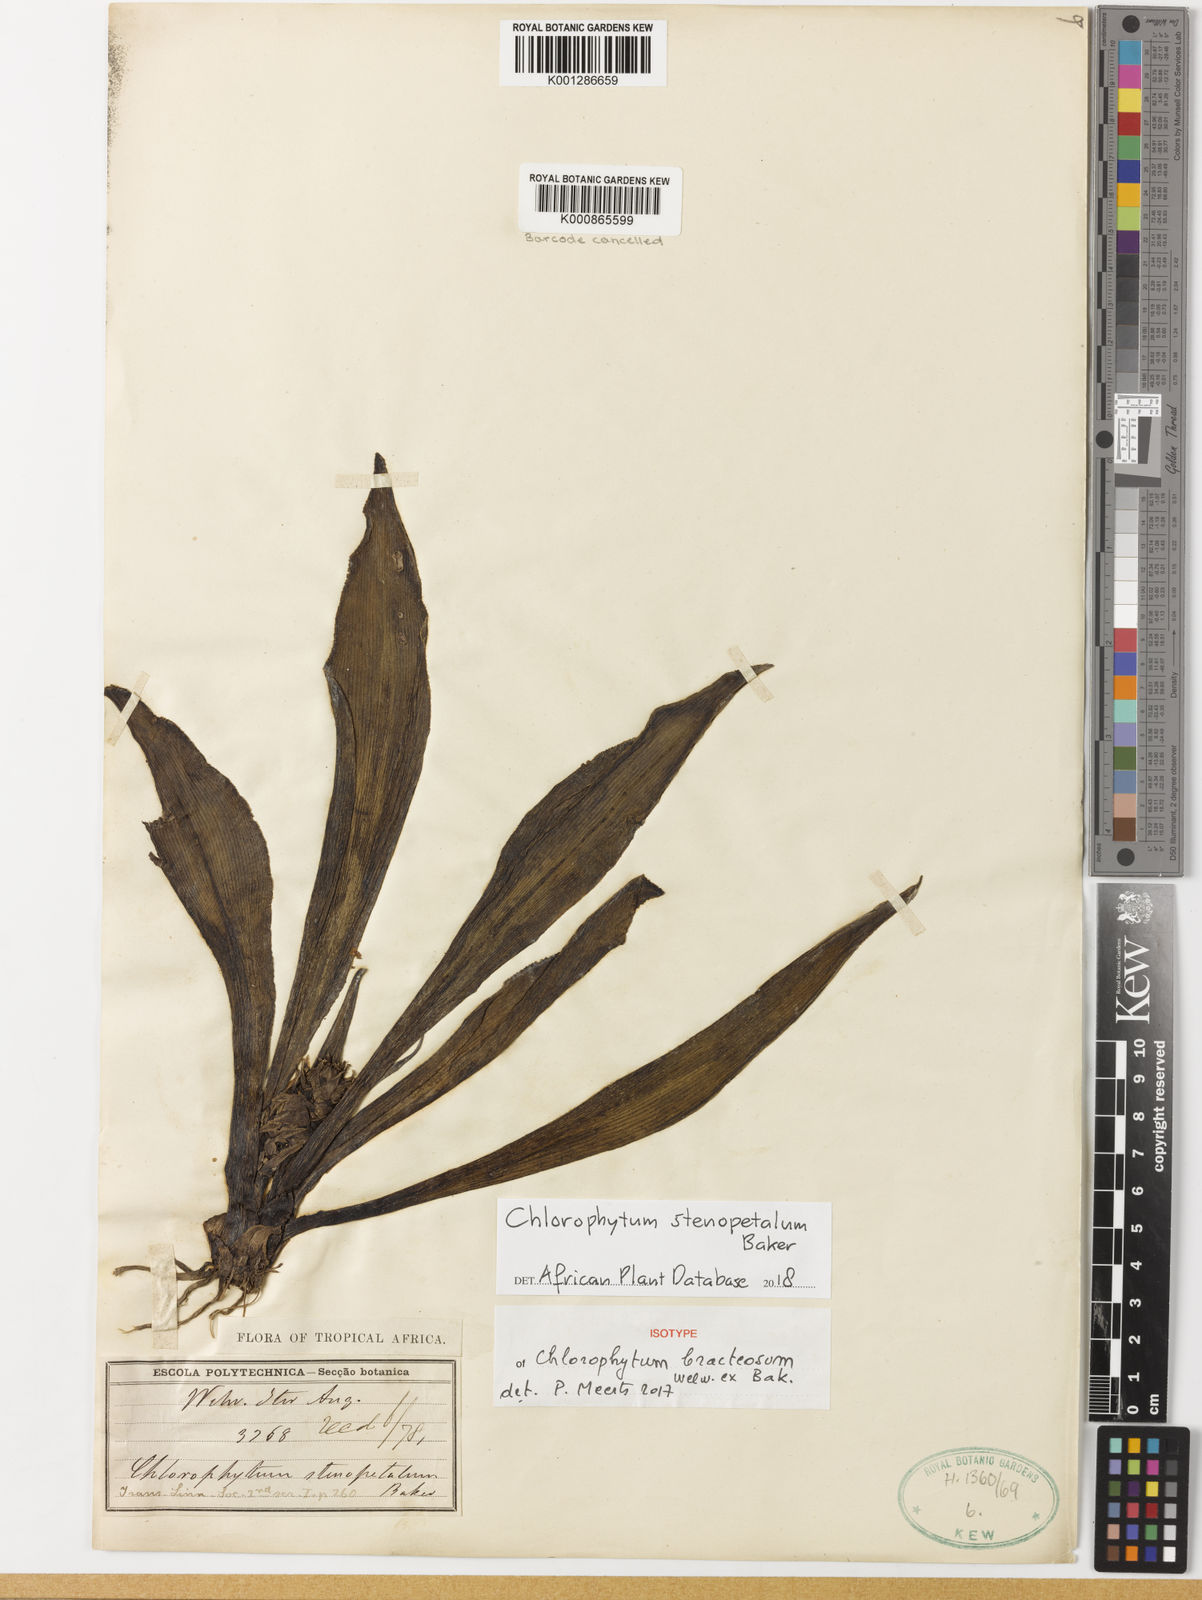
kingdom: Plantae
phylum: Tracheophyta
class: Liliopsida
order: Asparagales
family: Asparagaceae
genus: Chlorophytum
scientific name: Chlorophytum stenopetalum
